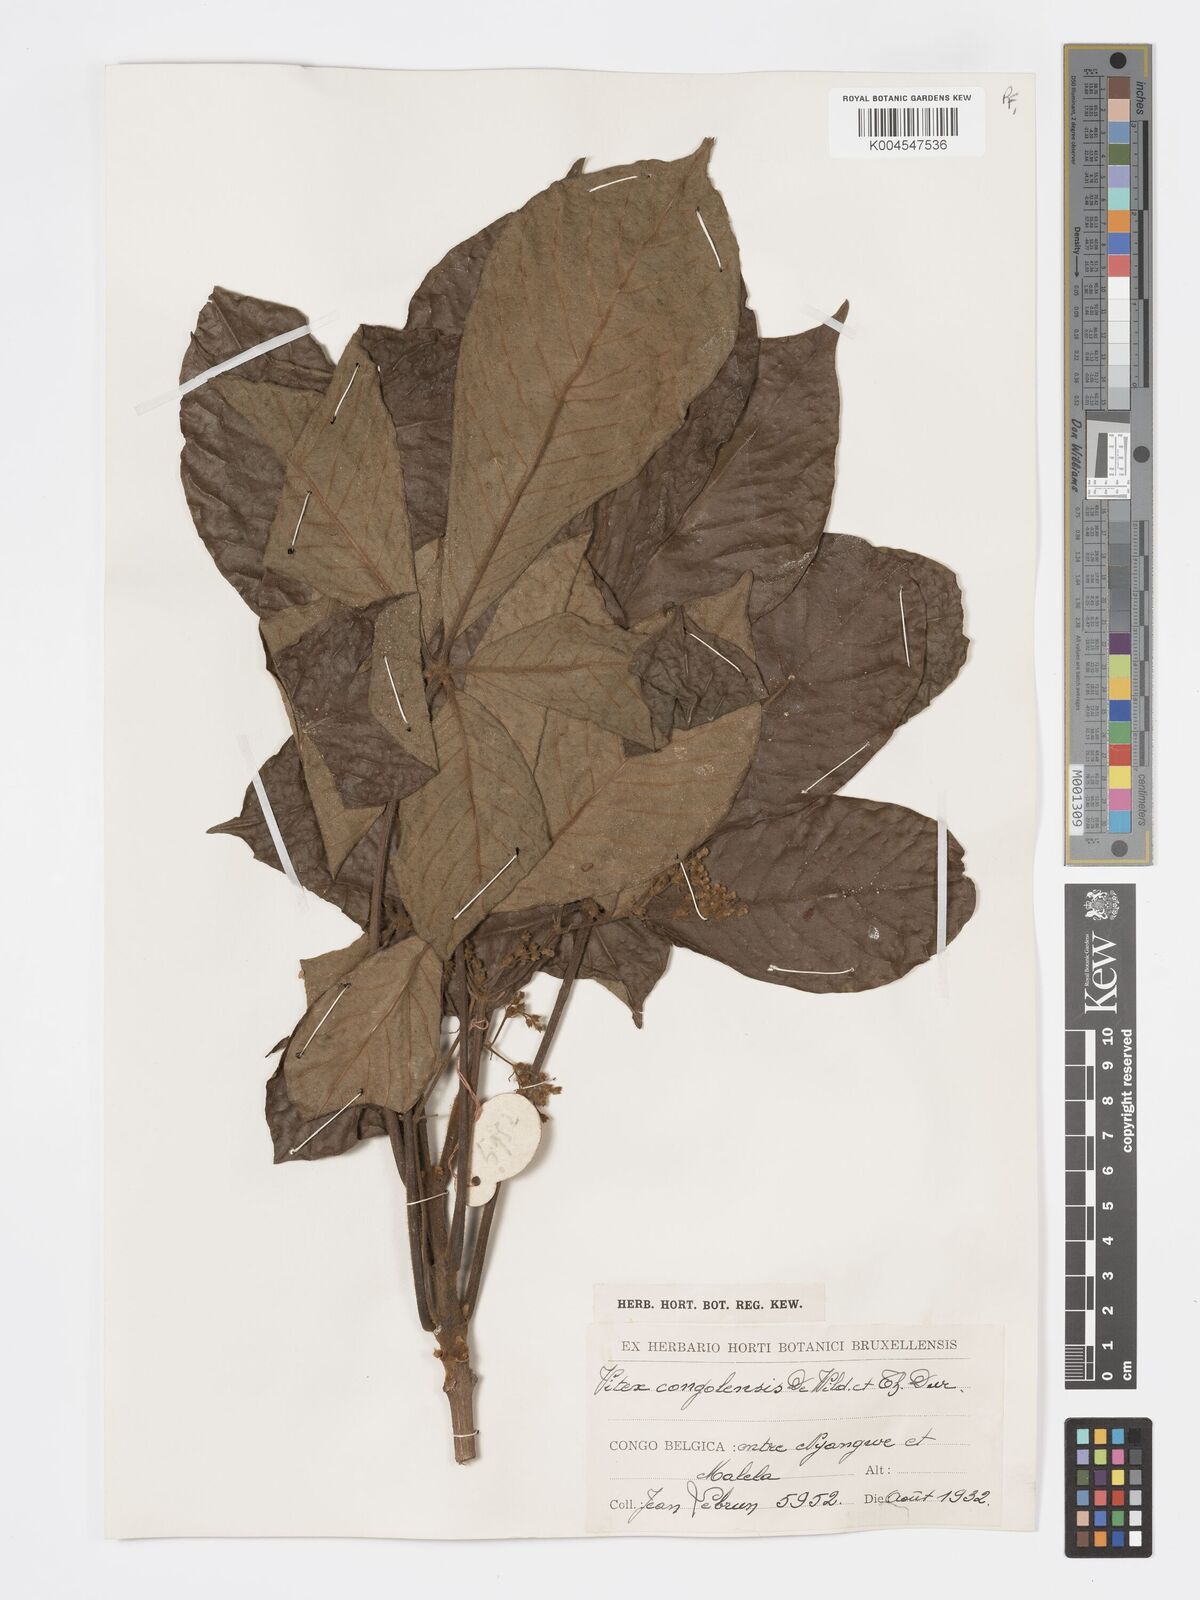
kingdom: Plantae
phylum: Tracheophyta
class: Magnoliopsida
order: Lamiales
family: Lamiaceae
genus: Vitex
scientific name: Vitex congolensis
